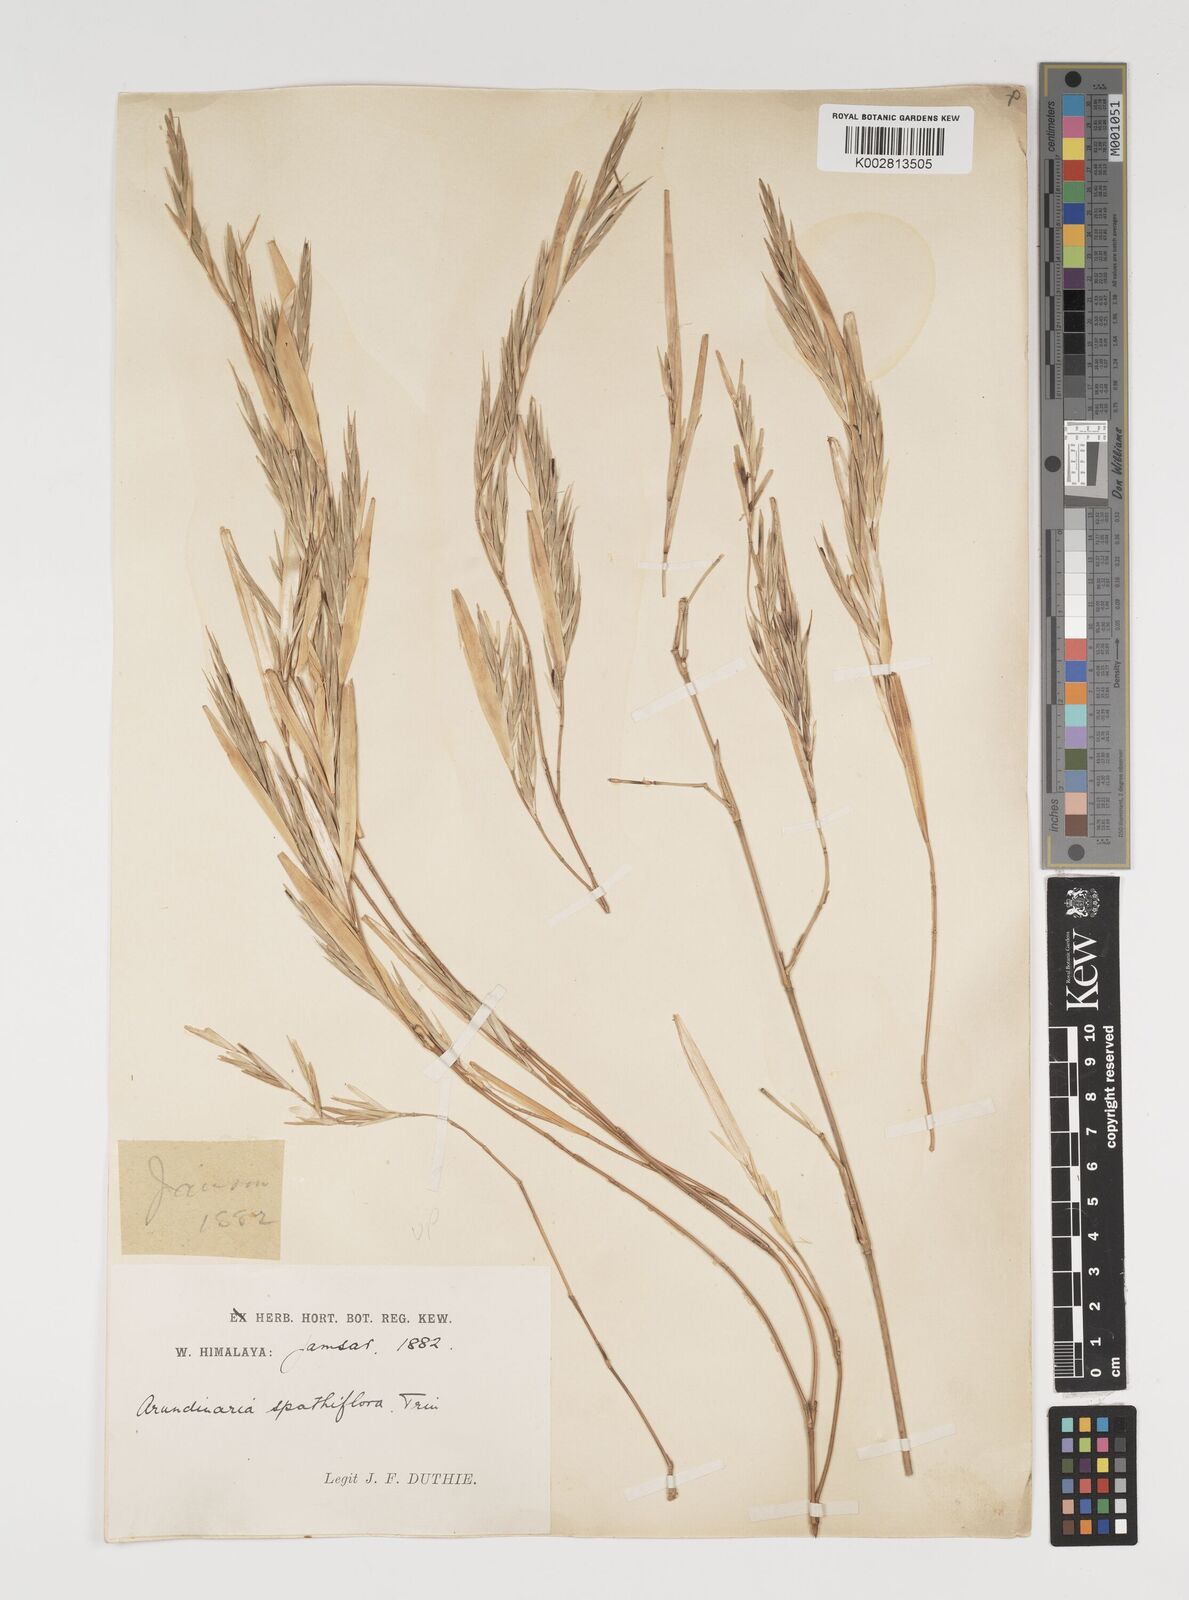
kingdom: Plantae
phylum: Tracheophyta
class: Liliopsida
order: Poales
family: Poaceae
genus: Thamnocalamus
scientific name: Thamnocalamus spathiflorus
